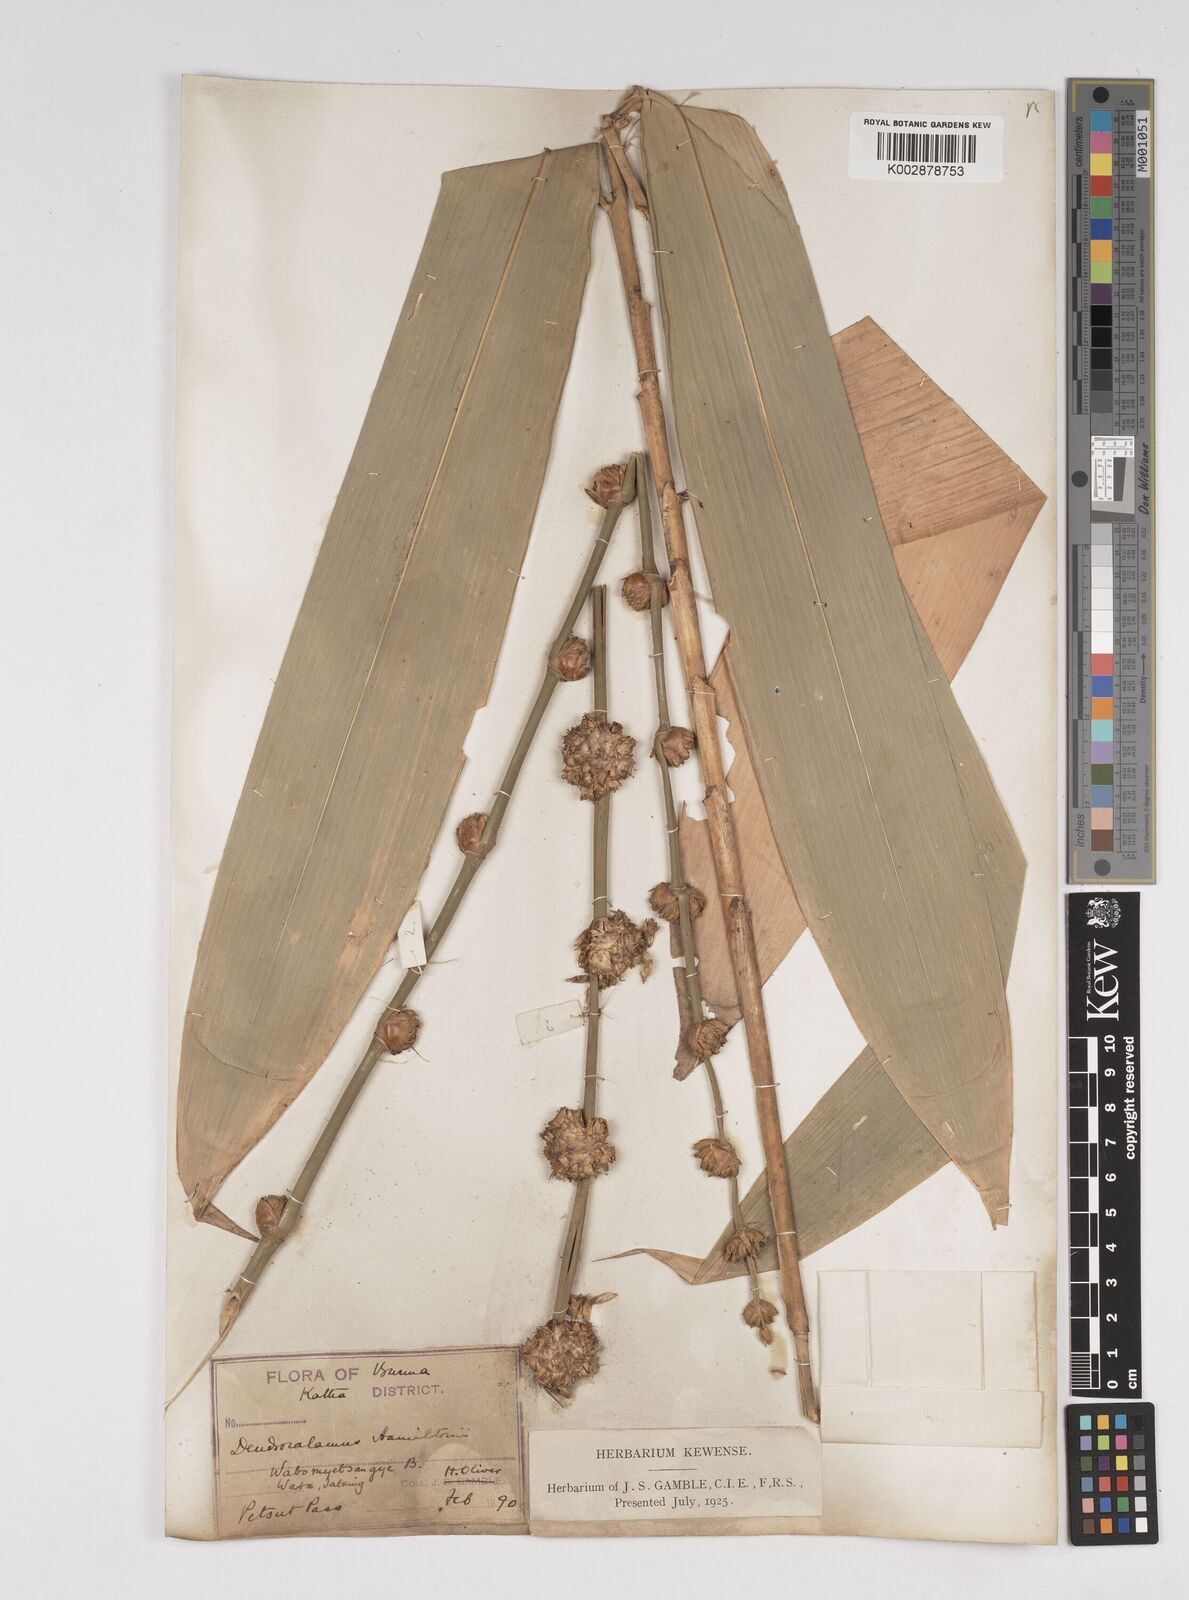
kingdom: Plantae
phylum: Tracheophyta
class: Liliopsida
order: Poales
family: Poaceae
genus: Dendrocalamus
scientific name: Dendrocalamus hamiltonii
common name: Tama bamboo
